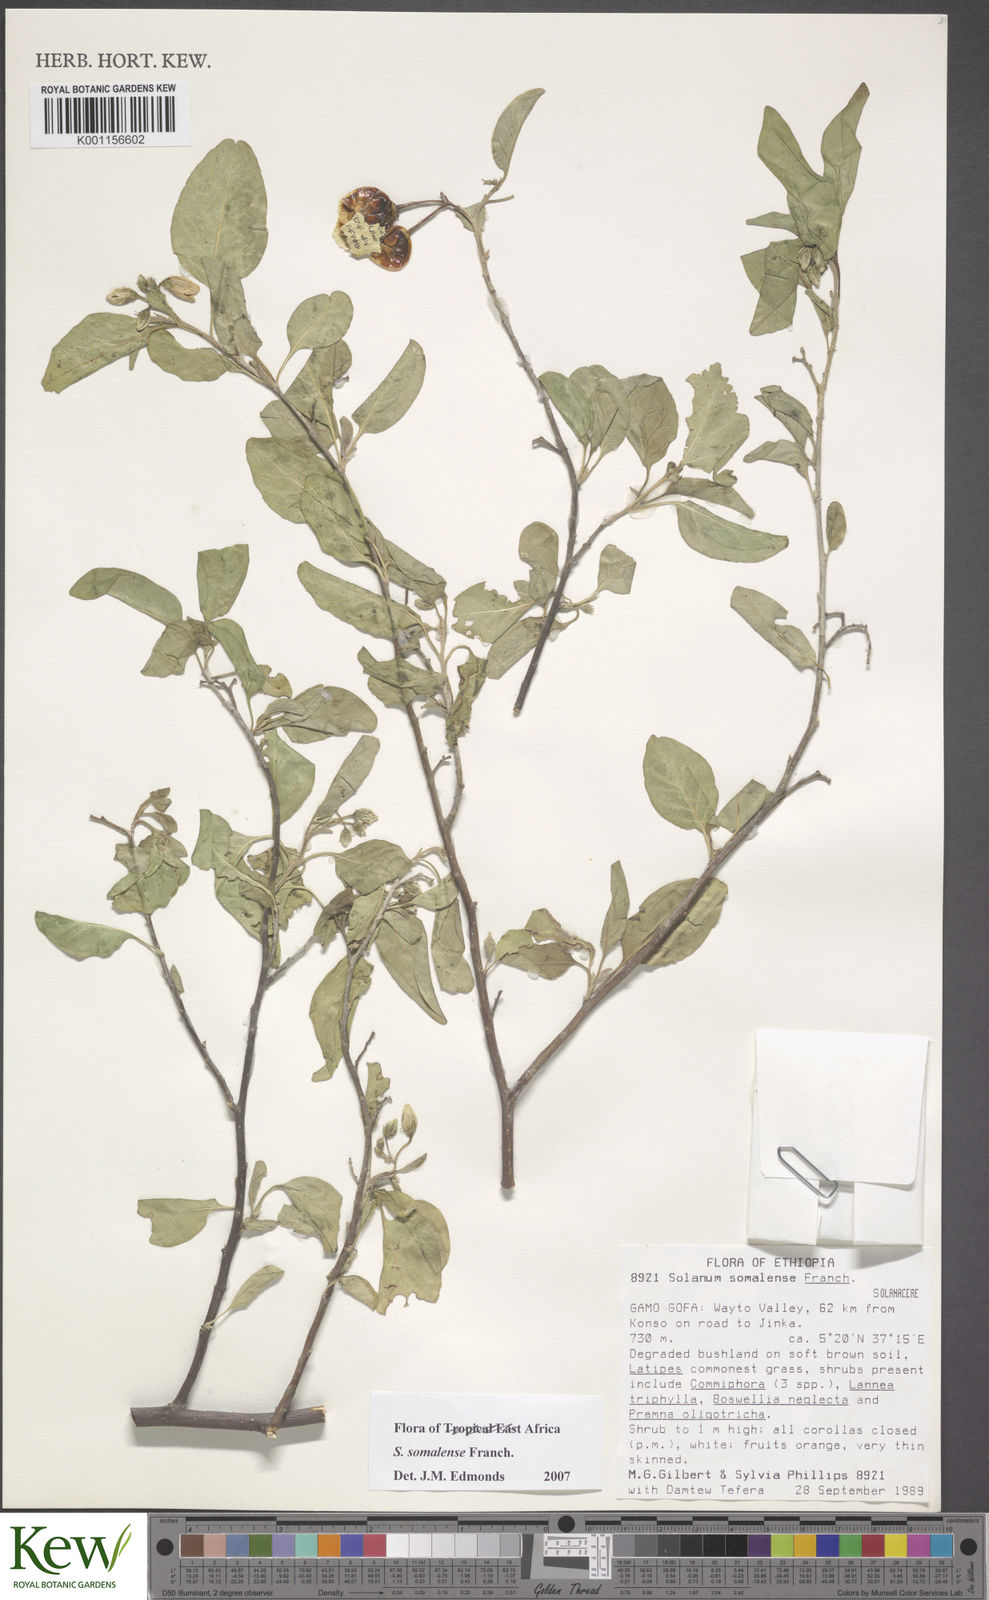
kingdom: Plantae
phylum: Tracheophyta
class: Magnoliopsida
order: Solanales
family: Solanaceae
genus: Solanum
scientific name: Solanum somalense
